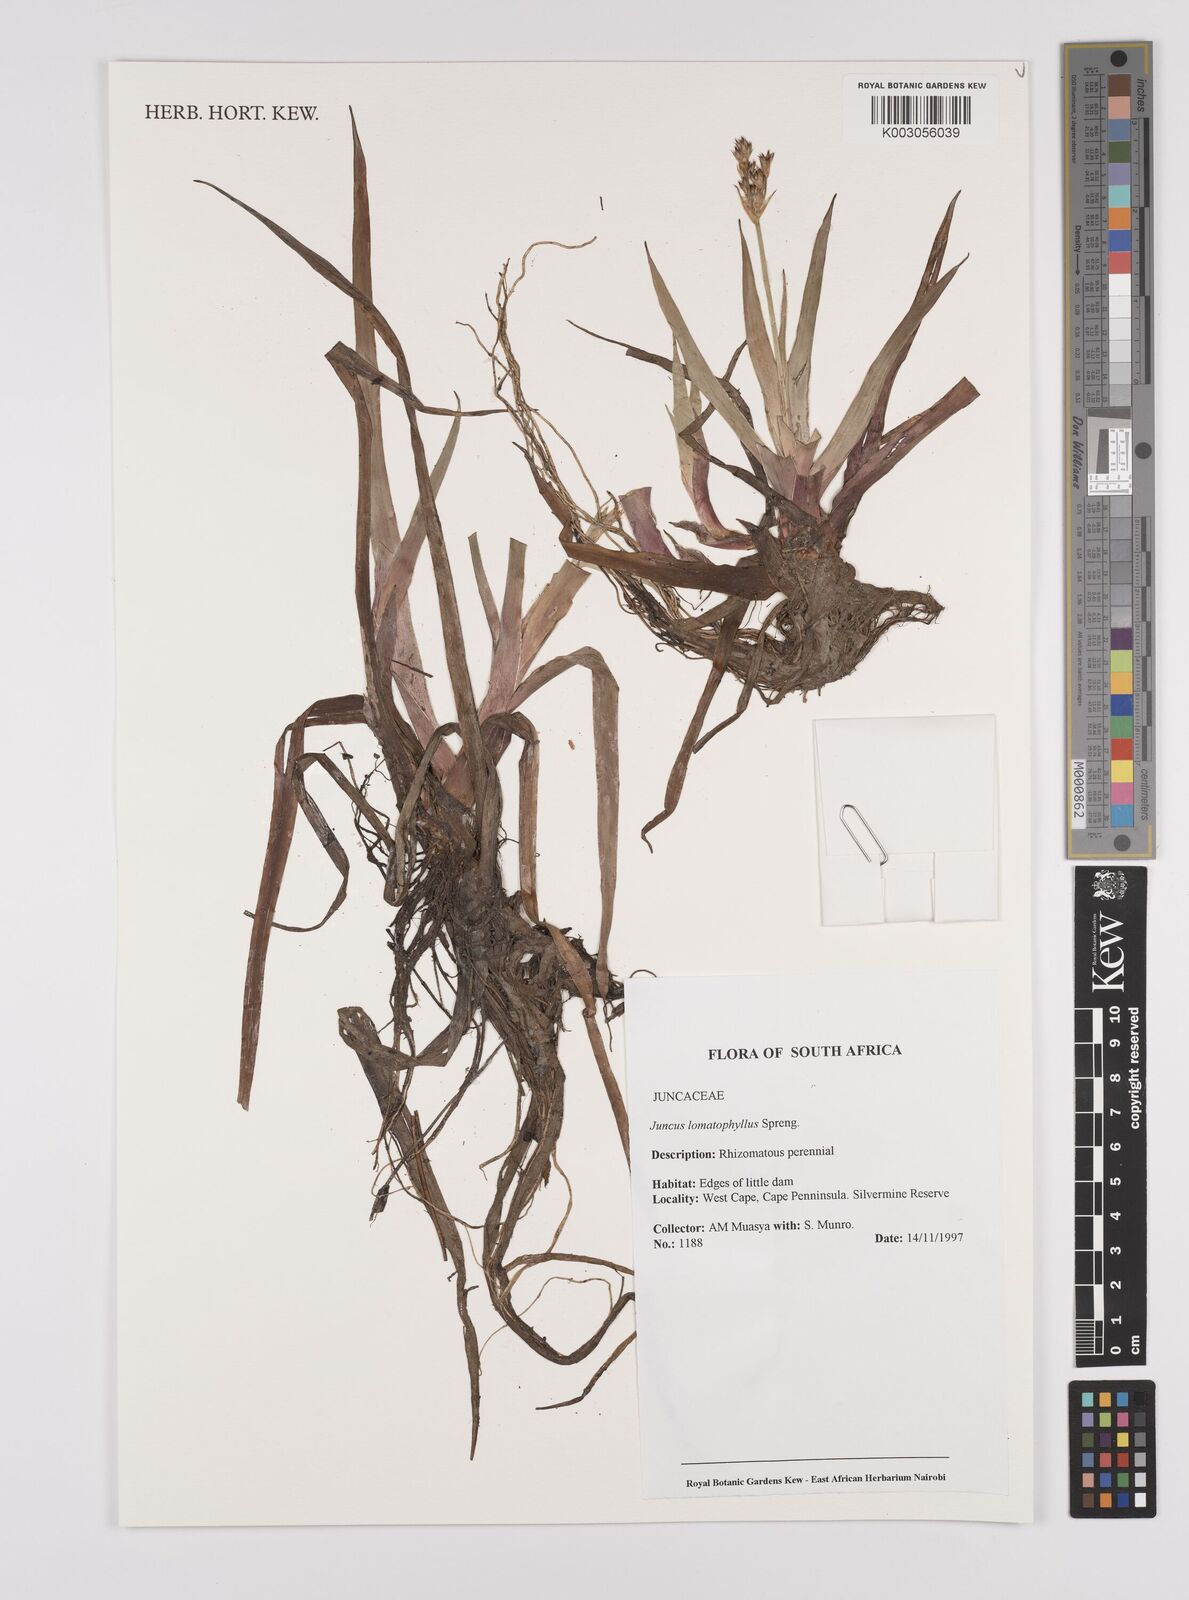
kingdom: Plantae
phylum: Tracheophyta
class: Liliopsida
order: Poales
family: Juncaceae
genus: Juncus
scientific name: Juncus lomatophyllus
